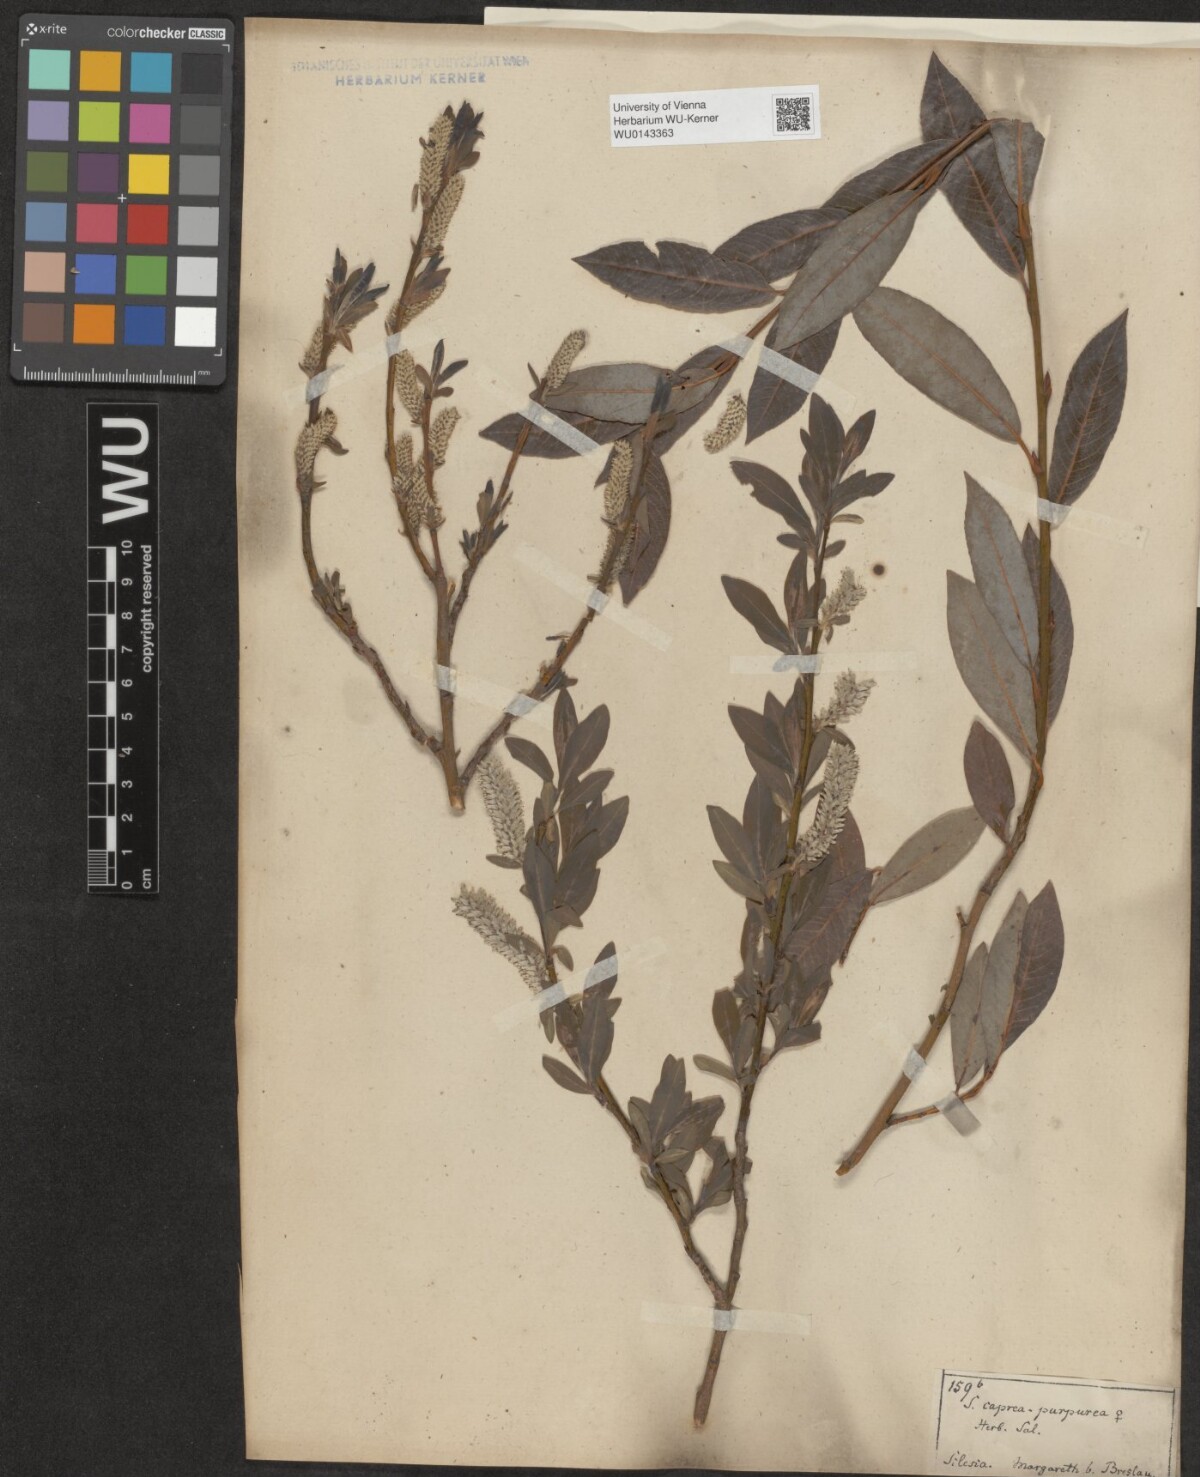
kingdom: Plantae
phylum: Tracheophyta
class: Magnoliopsida
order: Malpighiales
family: Salicaceae
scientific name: Salicaceae
